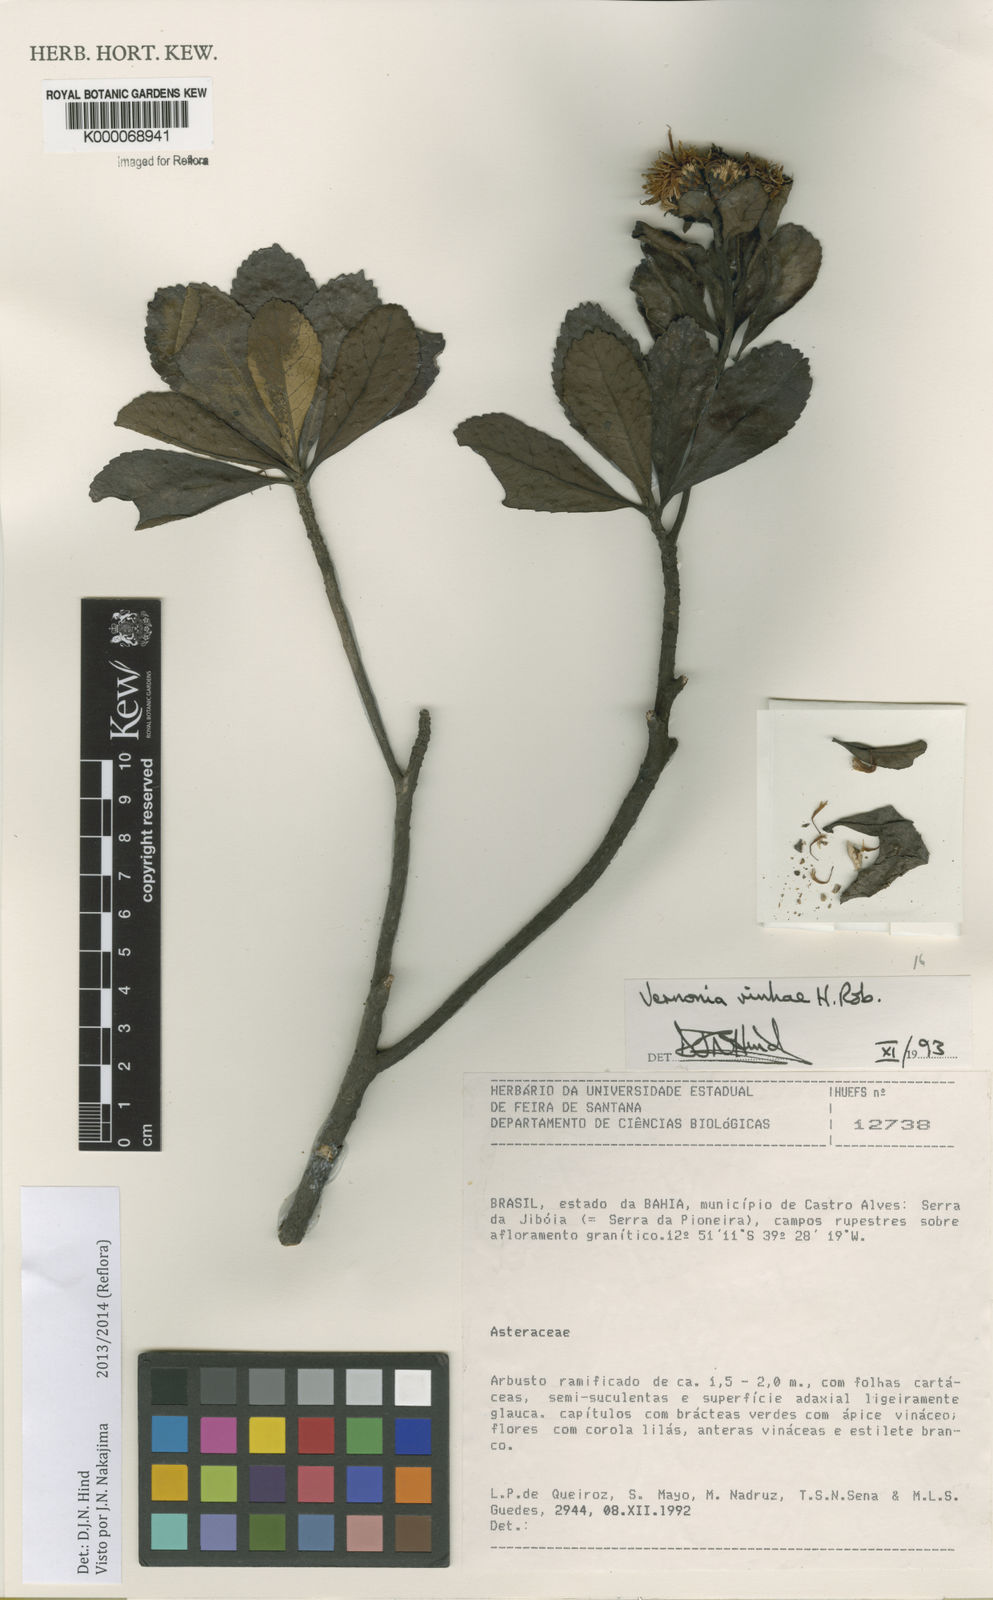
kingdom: Plantae
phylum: Tracheophyta
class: Magnoliopsida
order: Asterales
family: Asteraceae
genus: Vernonanthura
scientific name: Vernonanthura vinhae
